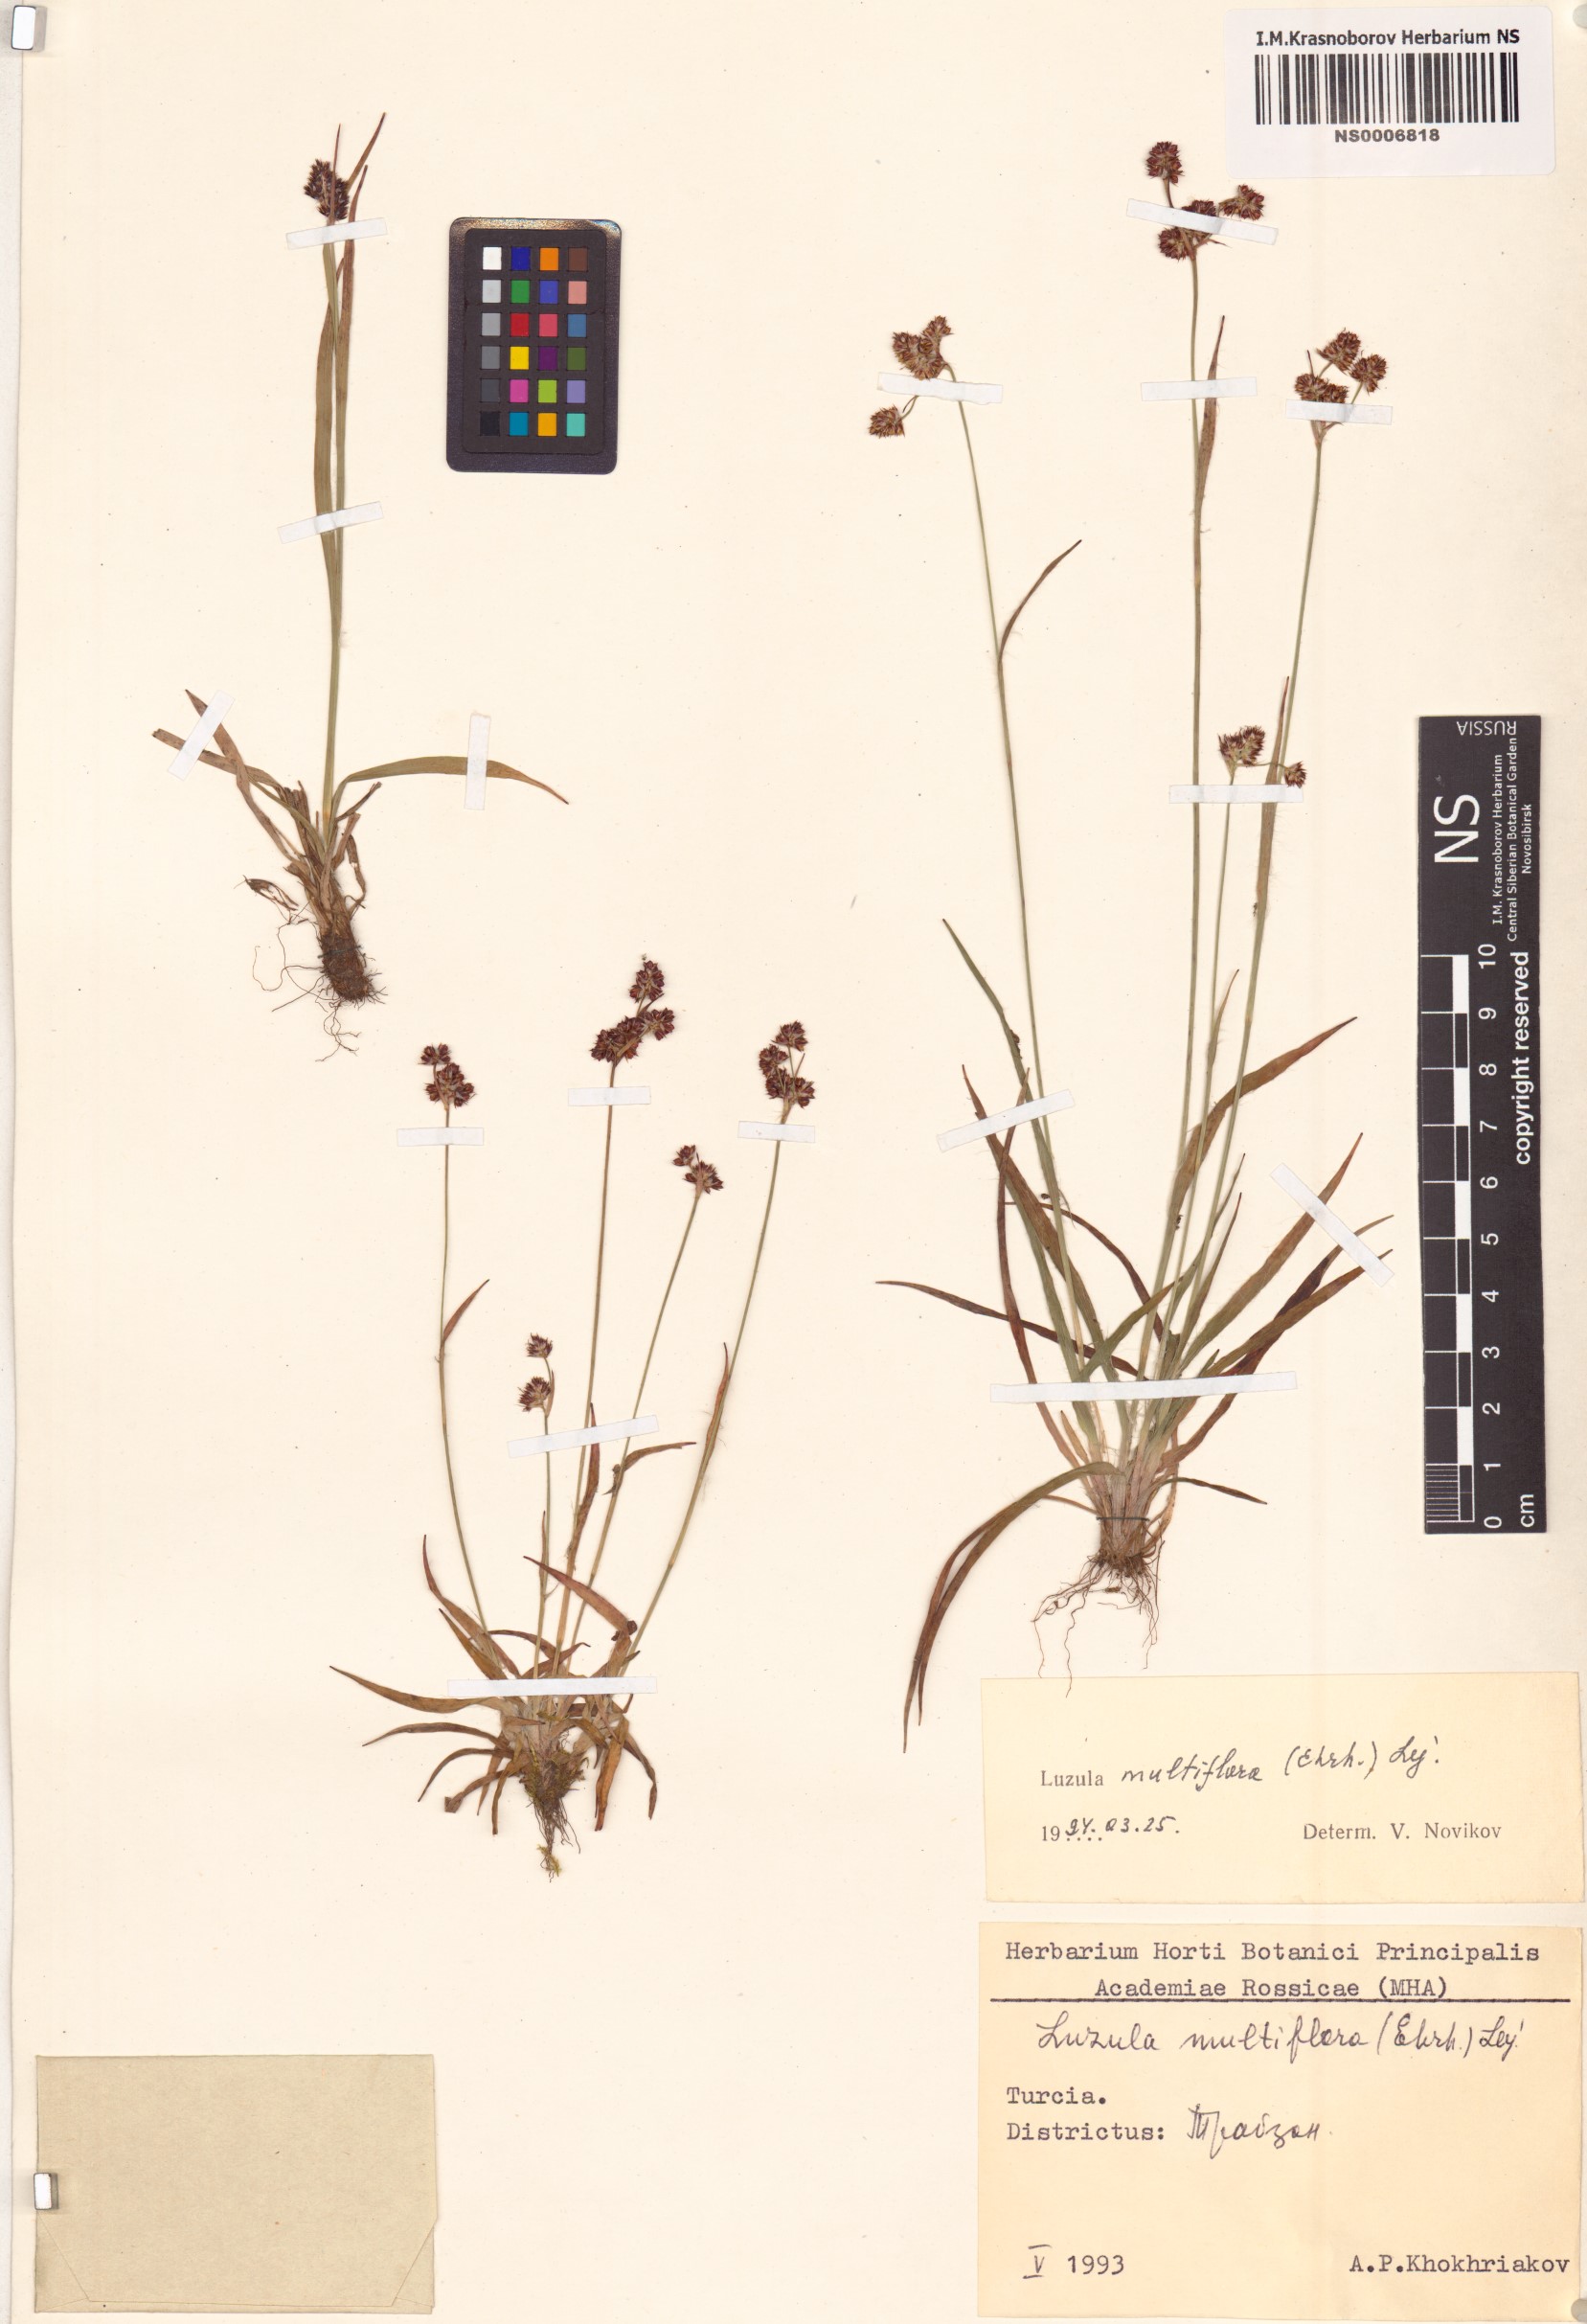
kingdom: Plantae
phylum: Tracheophyta
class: Liliopsida
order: Poales
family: Juncaceae
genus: Luzula
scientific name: Luzula multiflora
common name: Heath wood-rush
